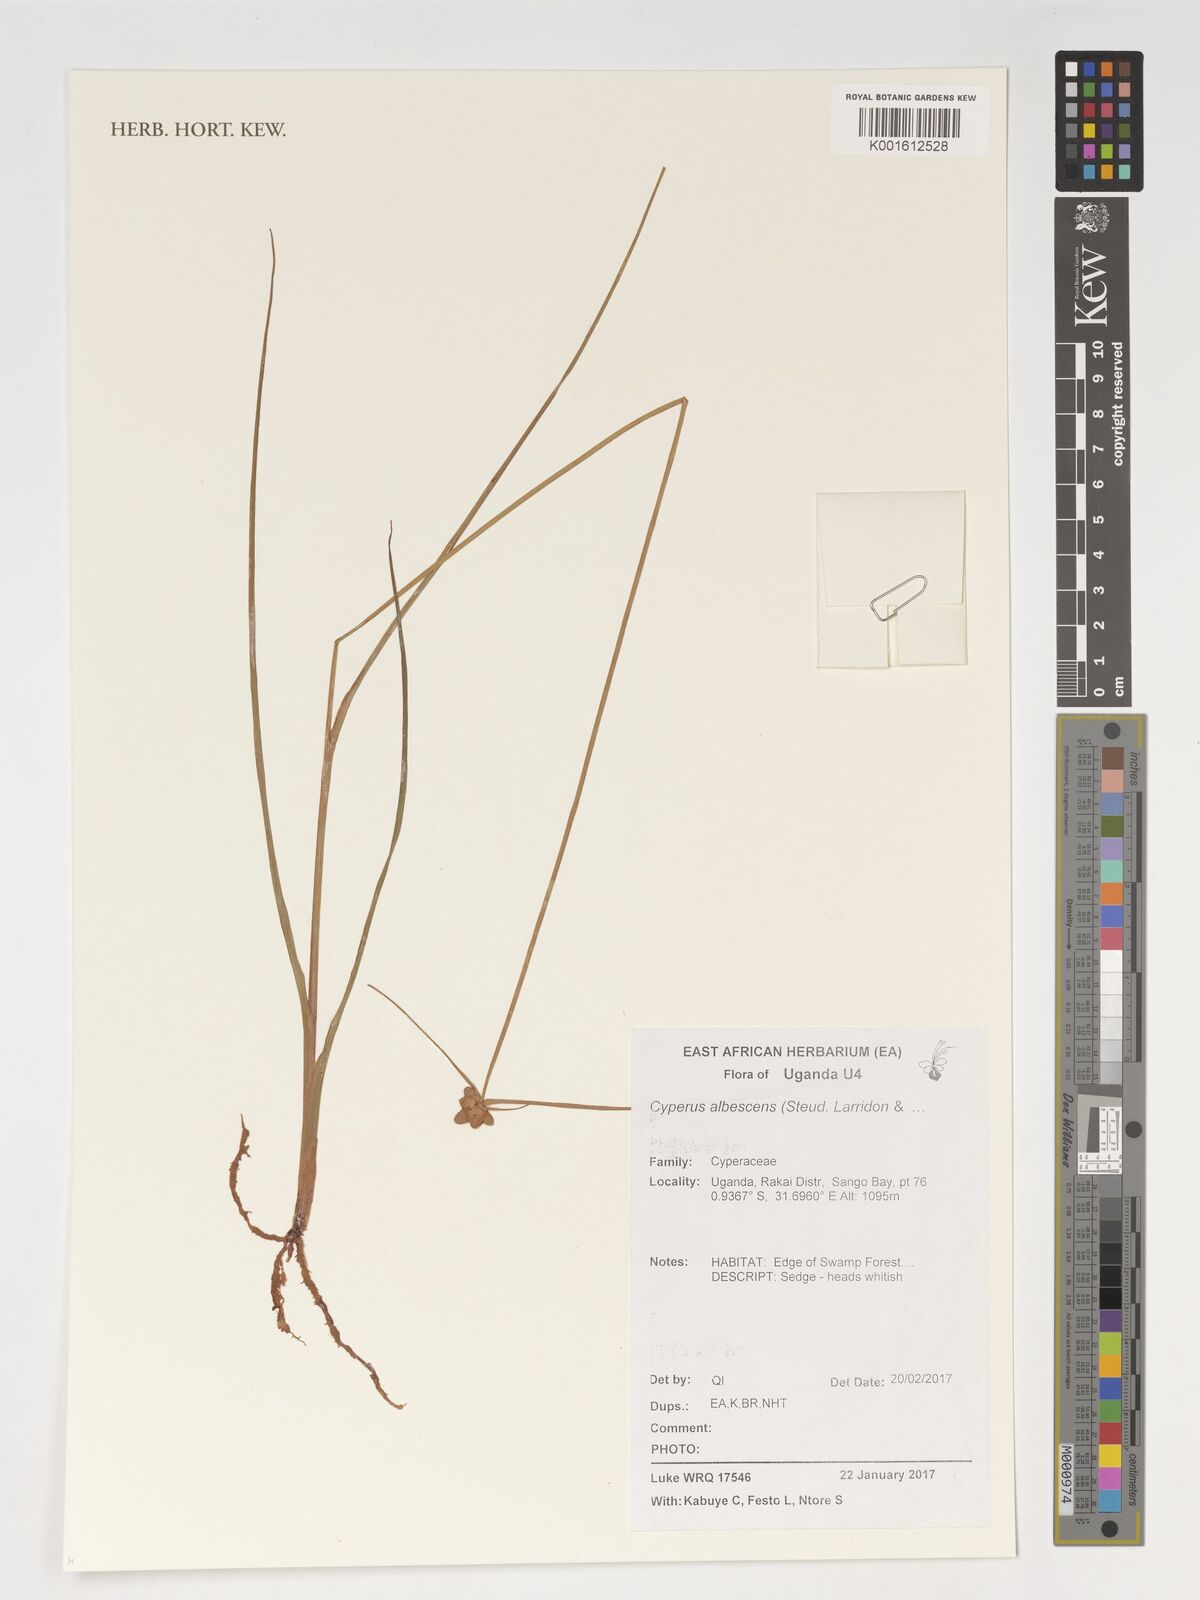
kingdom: Plantae
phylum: Tracheophyta
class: Liliopsida
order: Poales
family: Cyperaceae
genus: Cyperus
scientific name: Cyperus albescens
